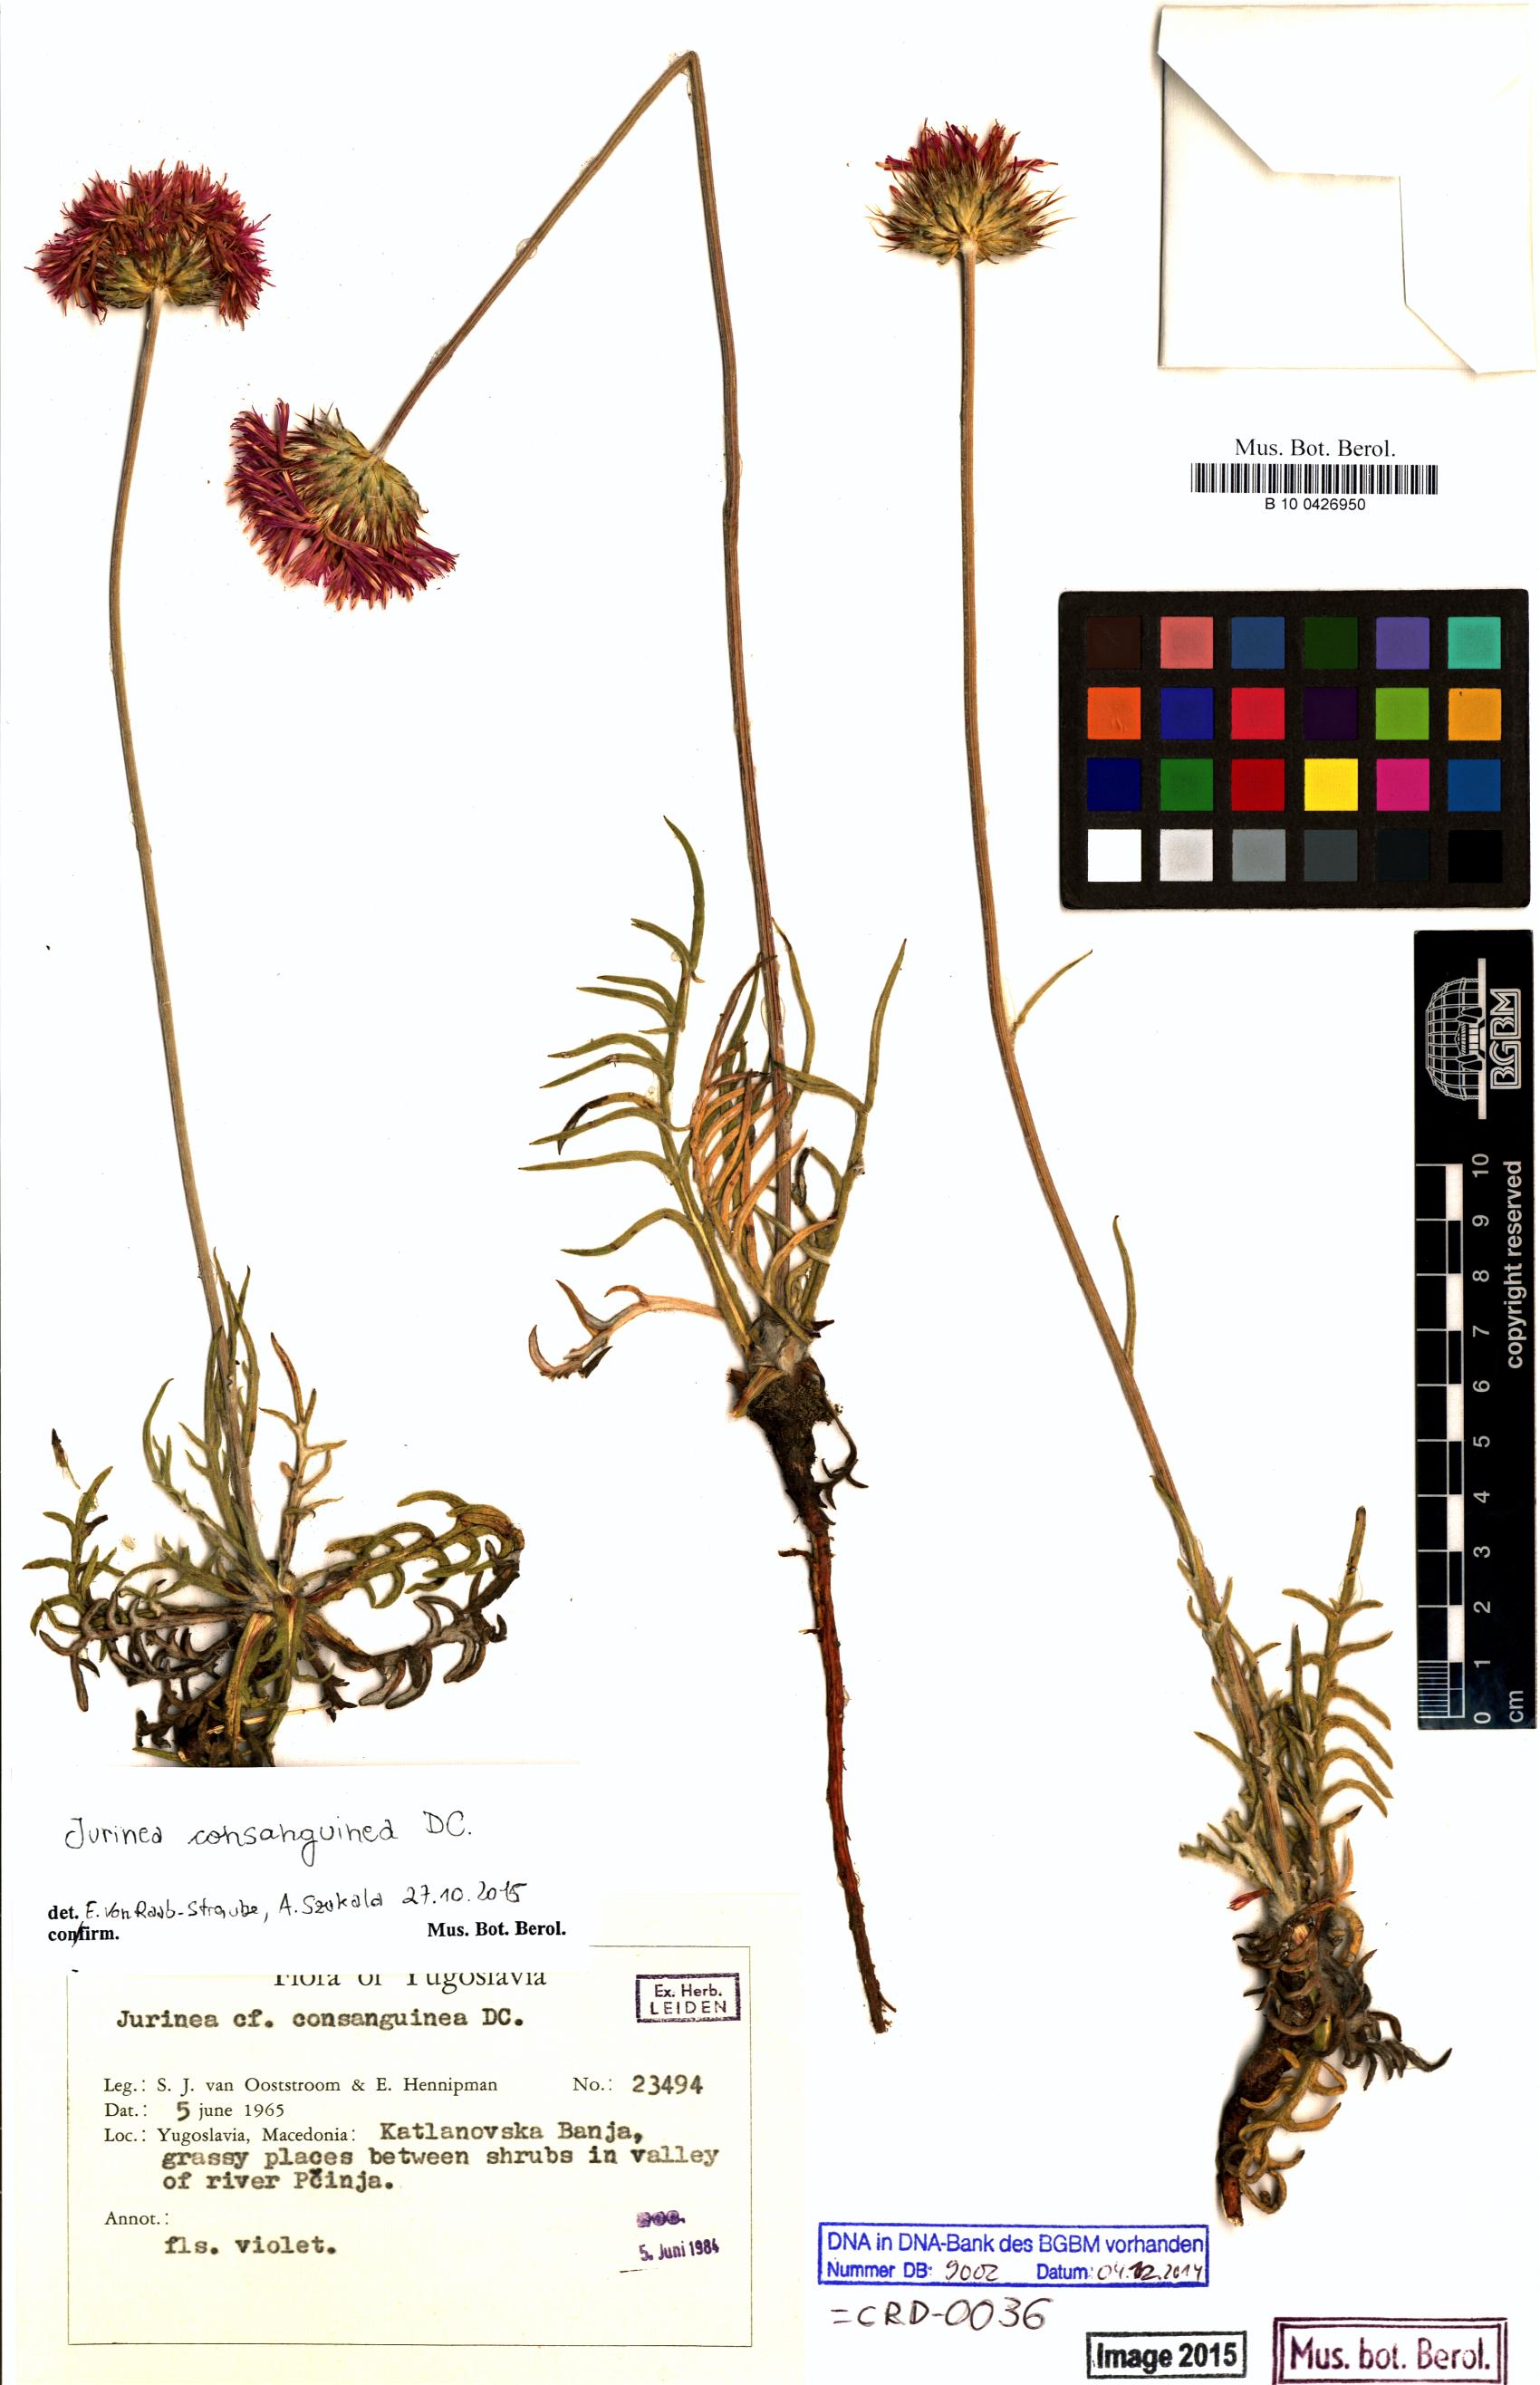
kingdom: Plantae
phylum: Tracheophyta
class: Magnoliopsida
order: Asterales
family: Asteraceae
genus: Jurinea
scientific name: Jurinea consanguinea
